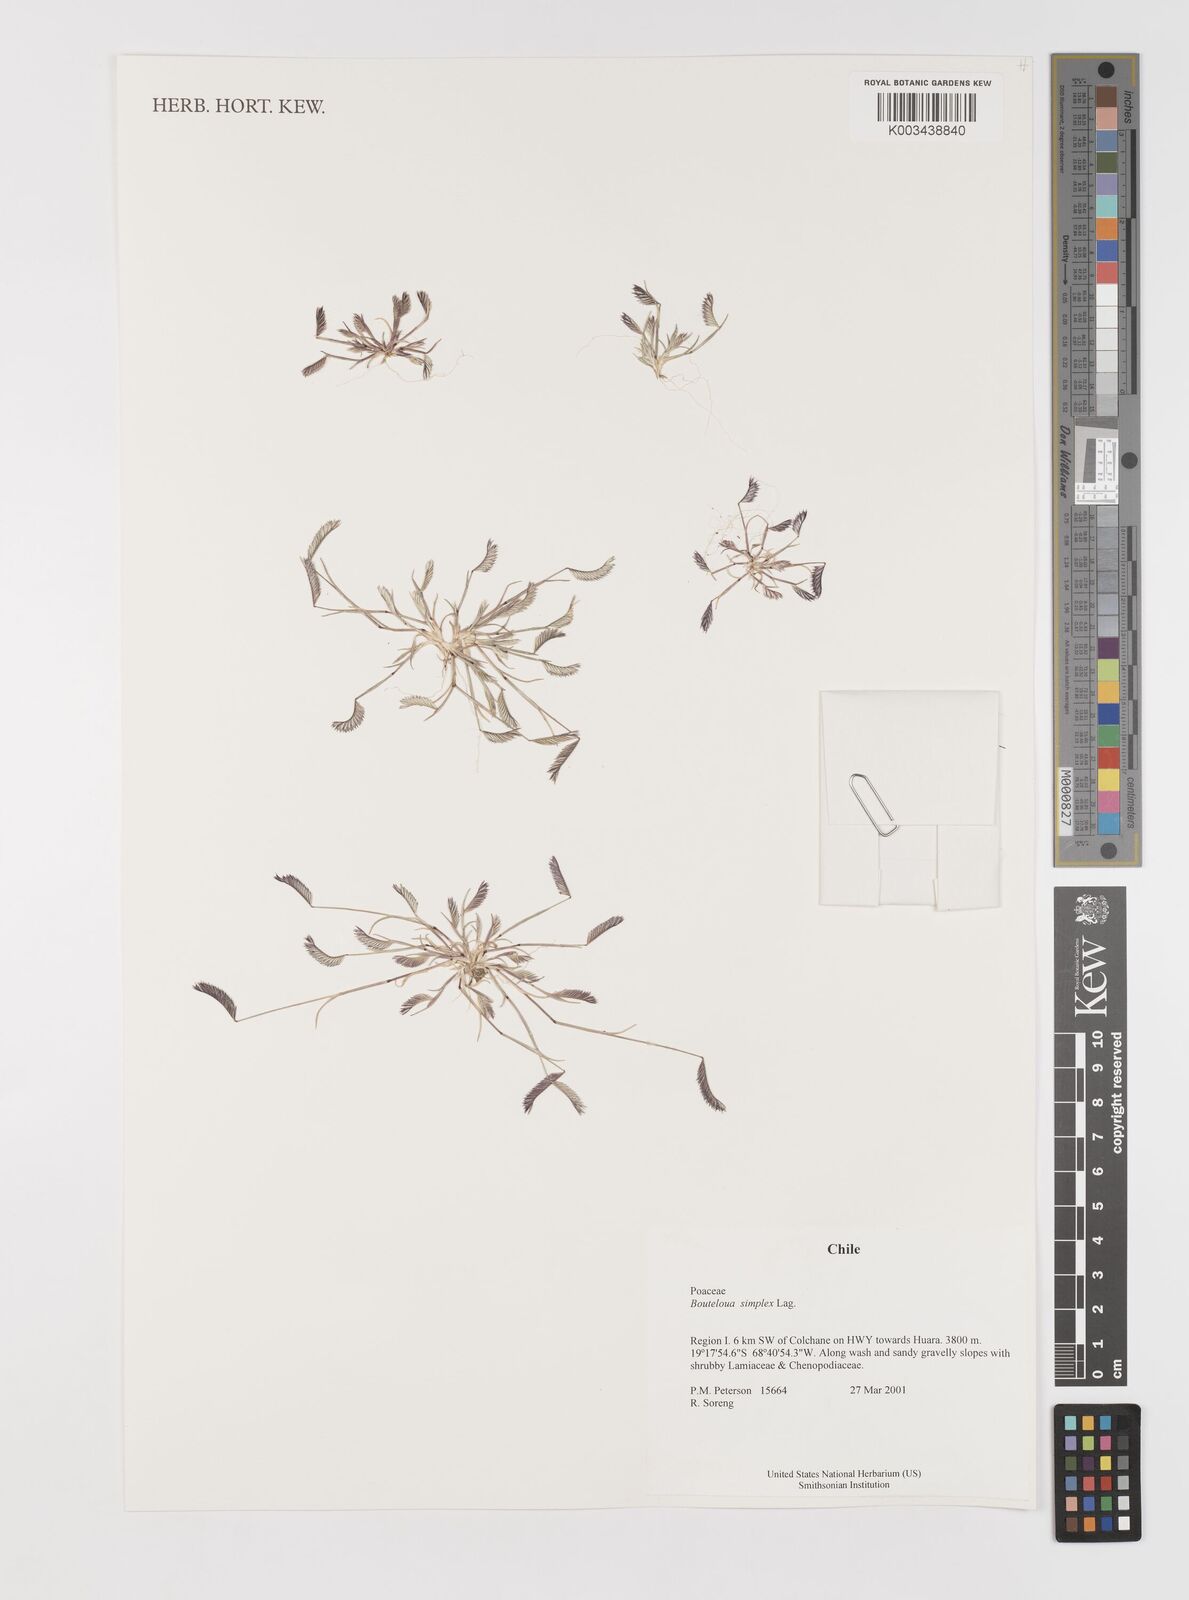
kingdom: Plantae
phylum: Tracheophyta
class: Liliopsida
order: Poales
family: Poaceae
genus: Bouteloua
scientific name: Bouteloua simplex
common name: Mat grama
